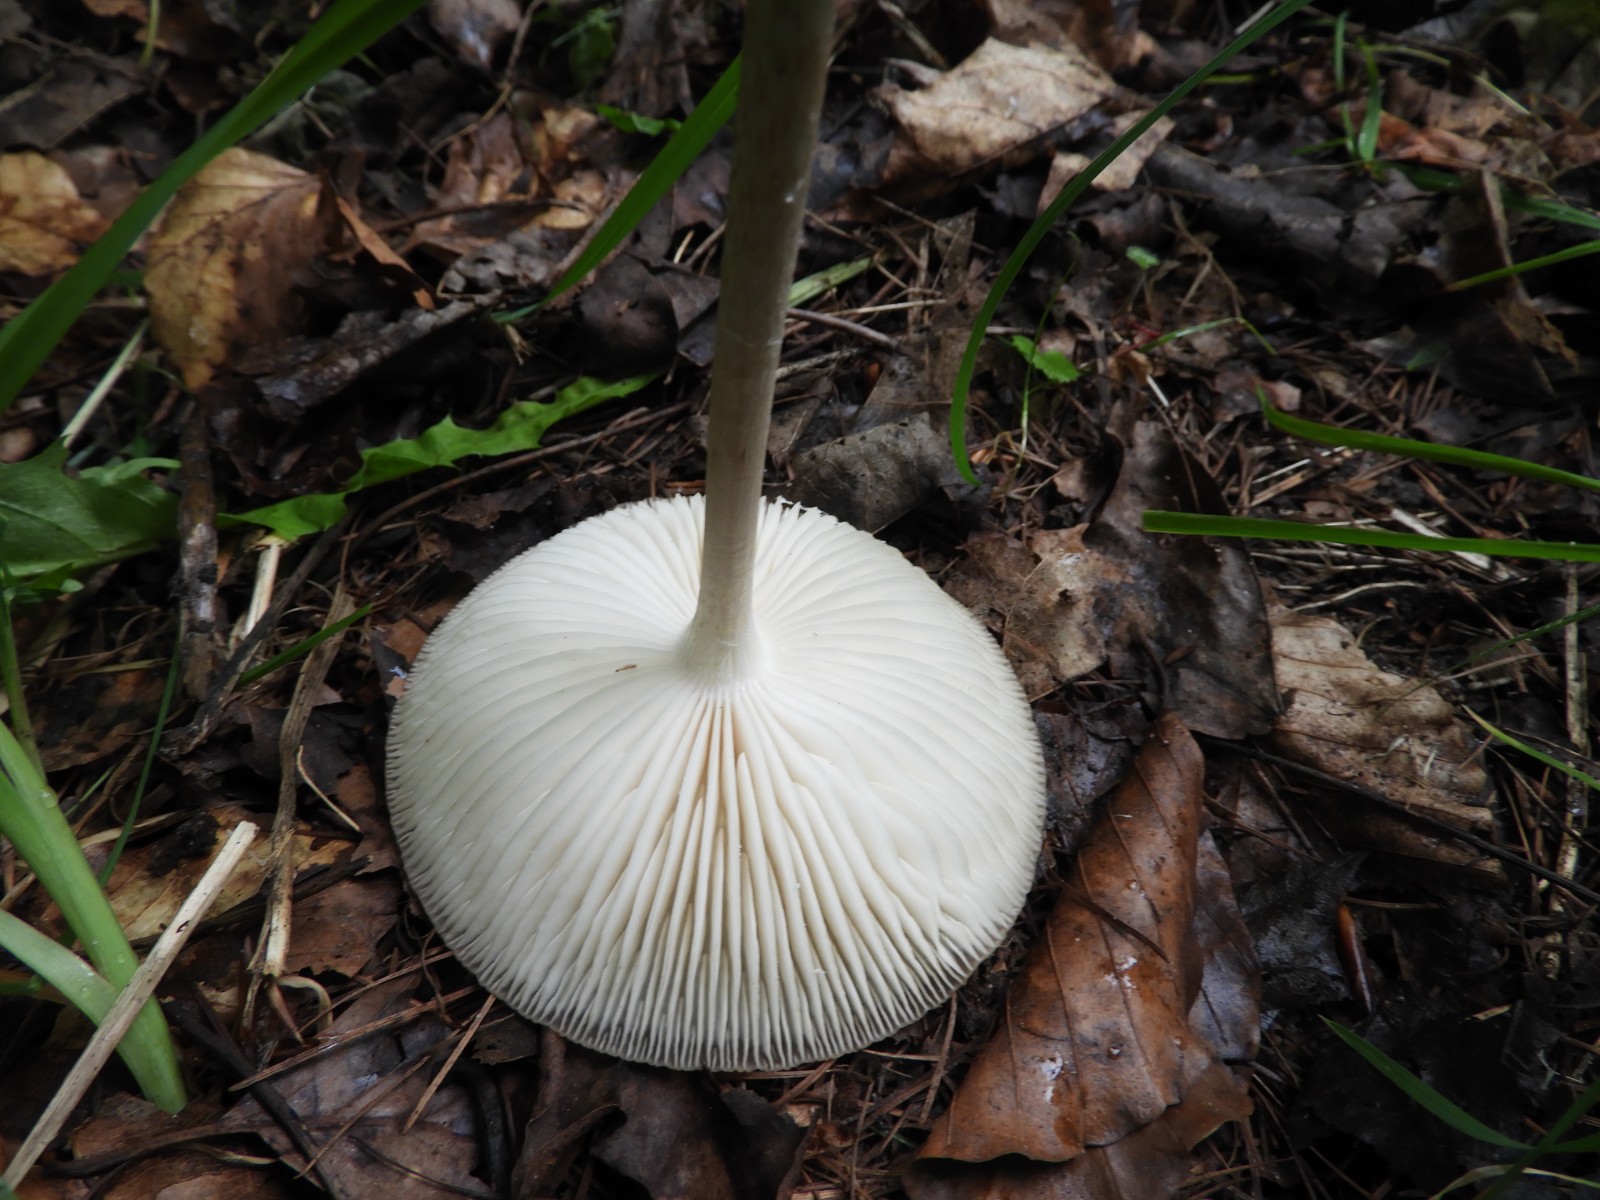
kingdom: Fungi
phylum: Basidiomycota
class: Agaricomycetes
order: Agaricales
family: Physalacriaceae
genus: Hymenopellis
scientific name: Hymenopellis radicata
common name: almindelig pælerodshat
